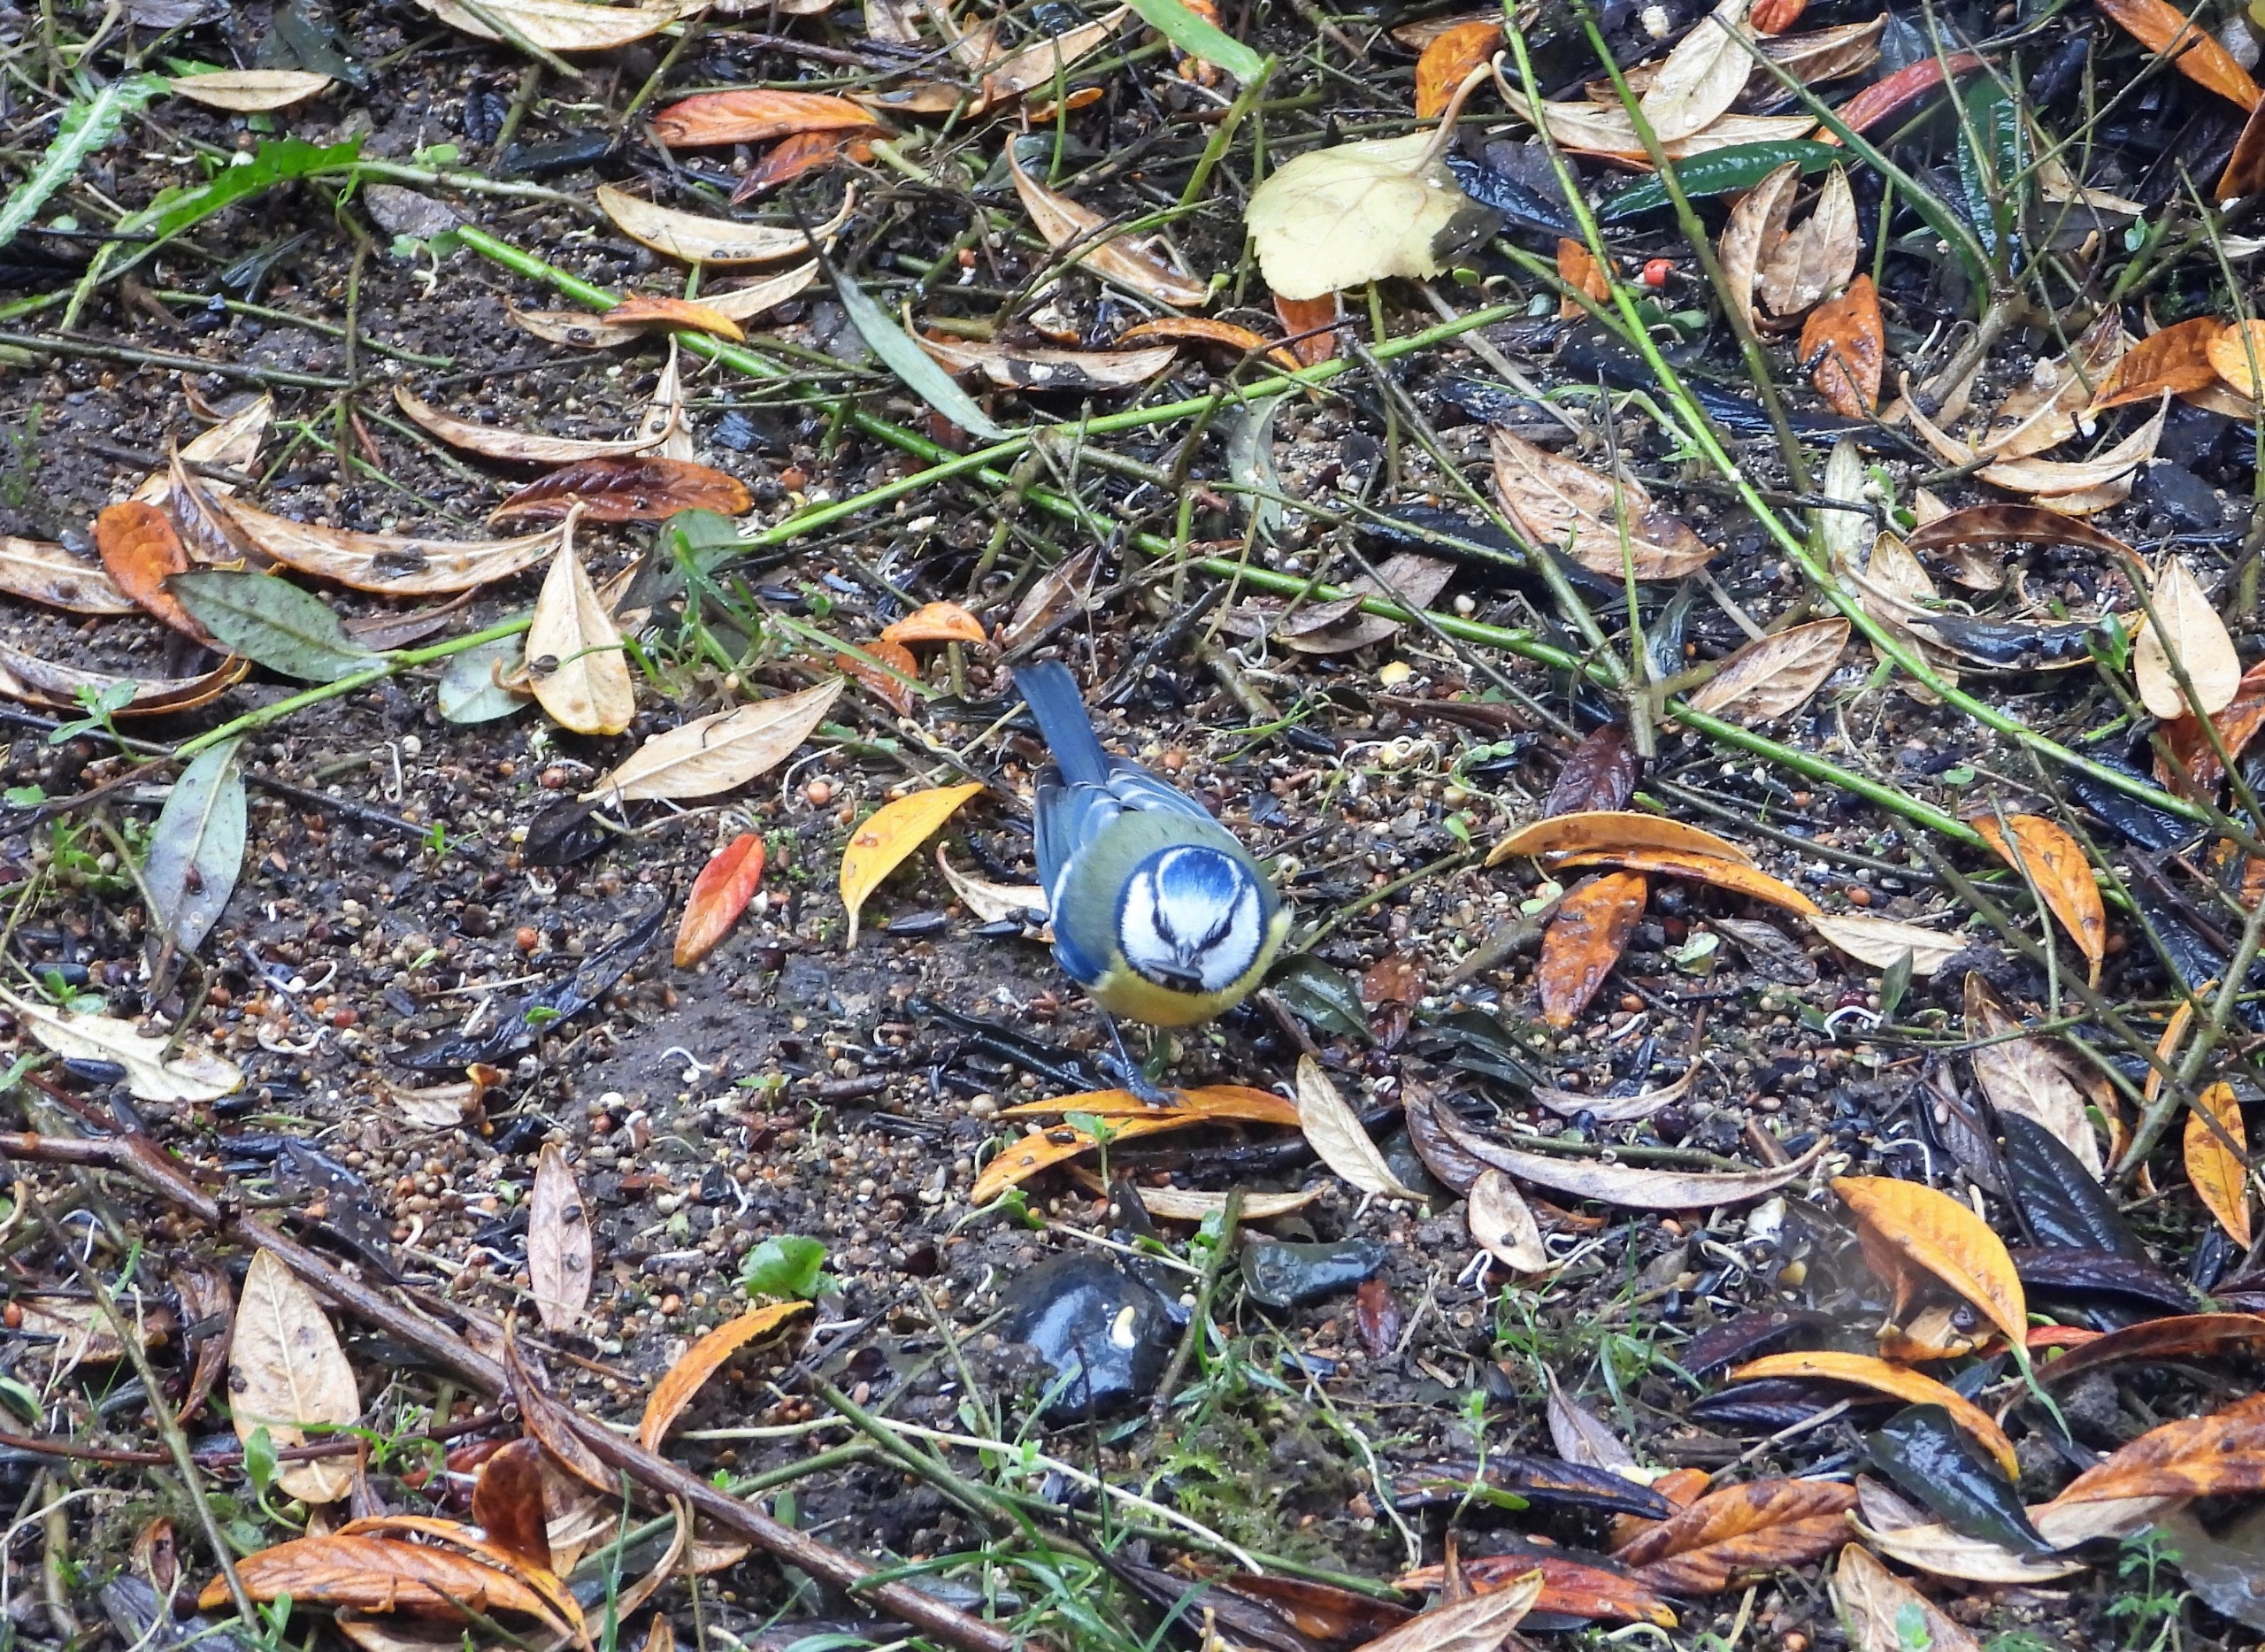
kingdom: Animalia
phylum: Chordata
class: Aves
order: Passeriformes
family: Paridae
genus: Cyanistes
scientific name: Cyanistes caeruleus
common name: Blåmejse
